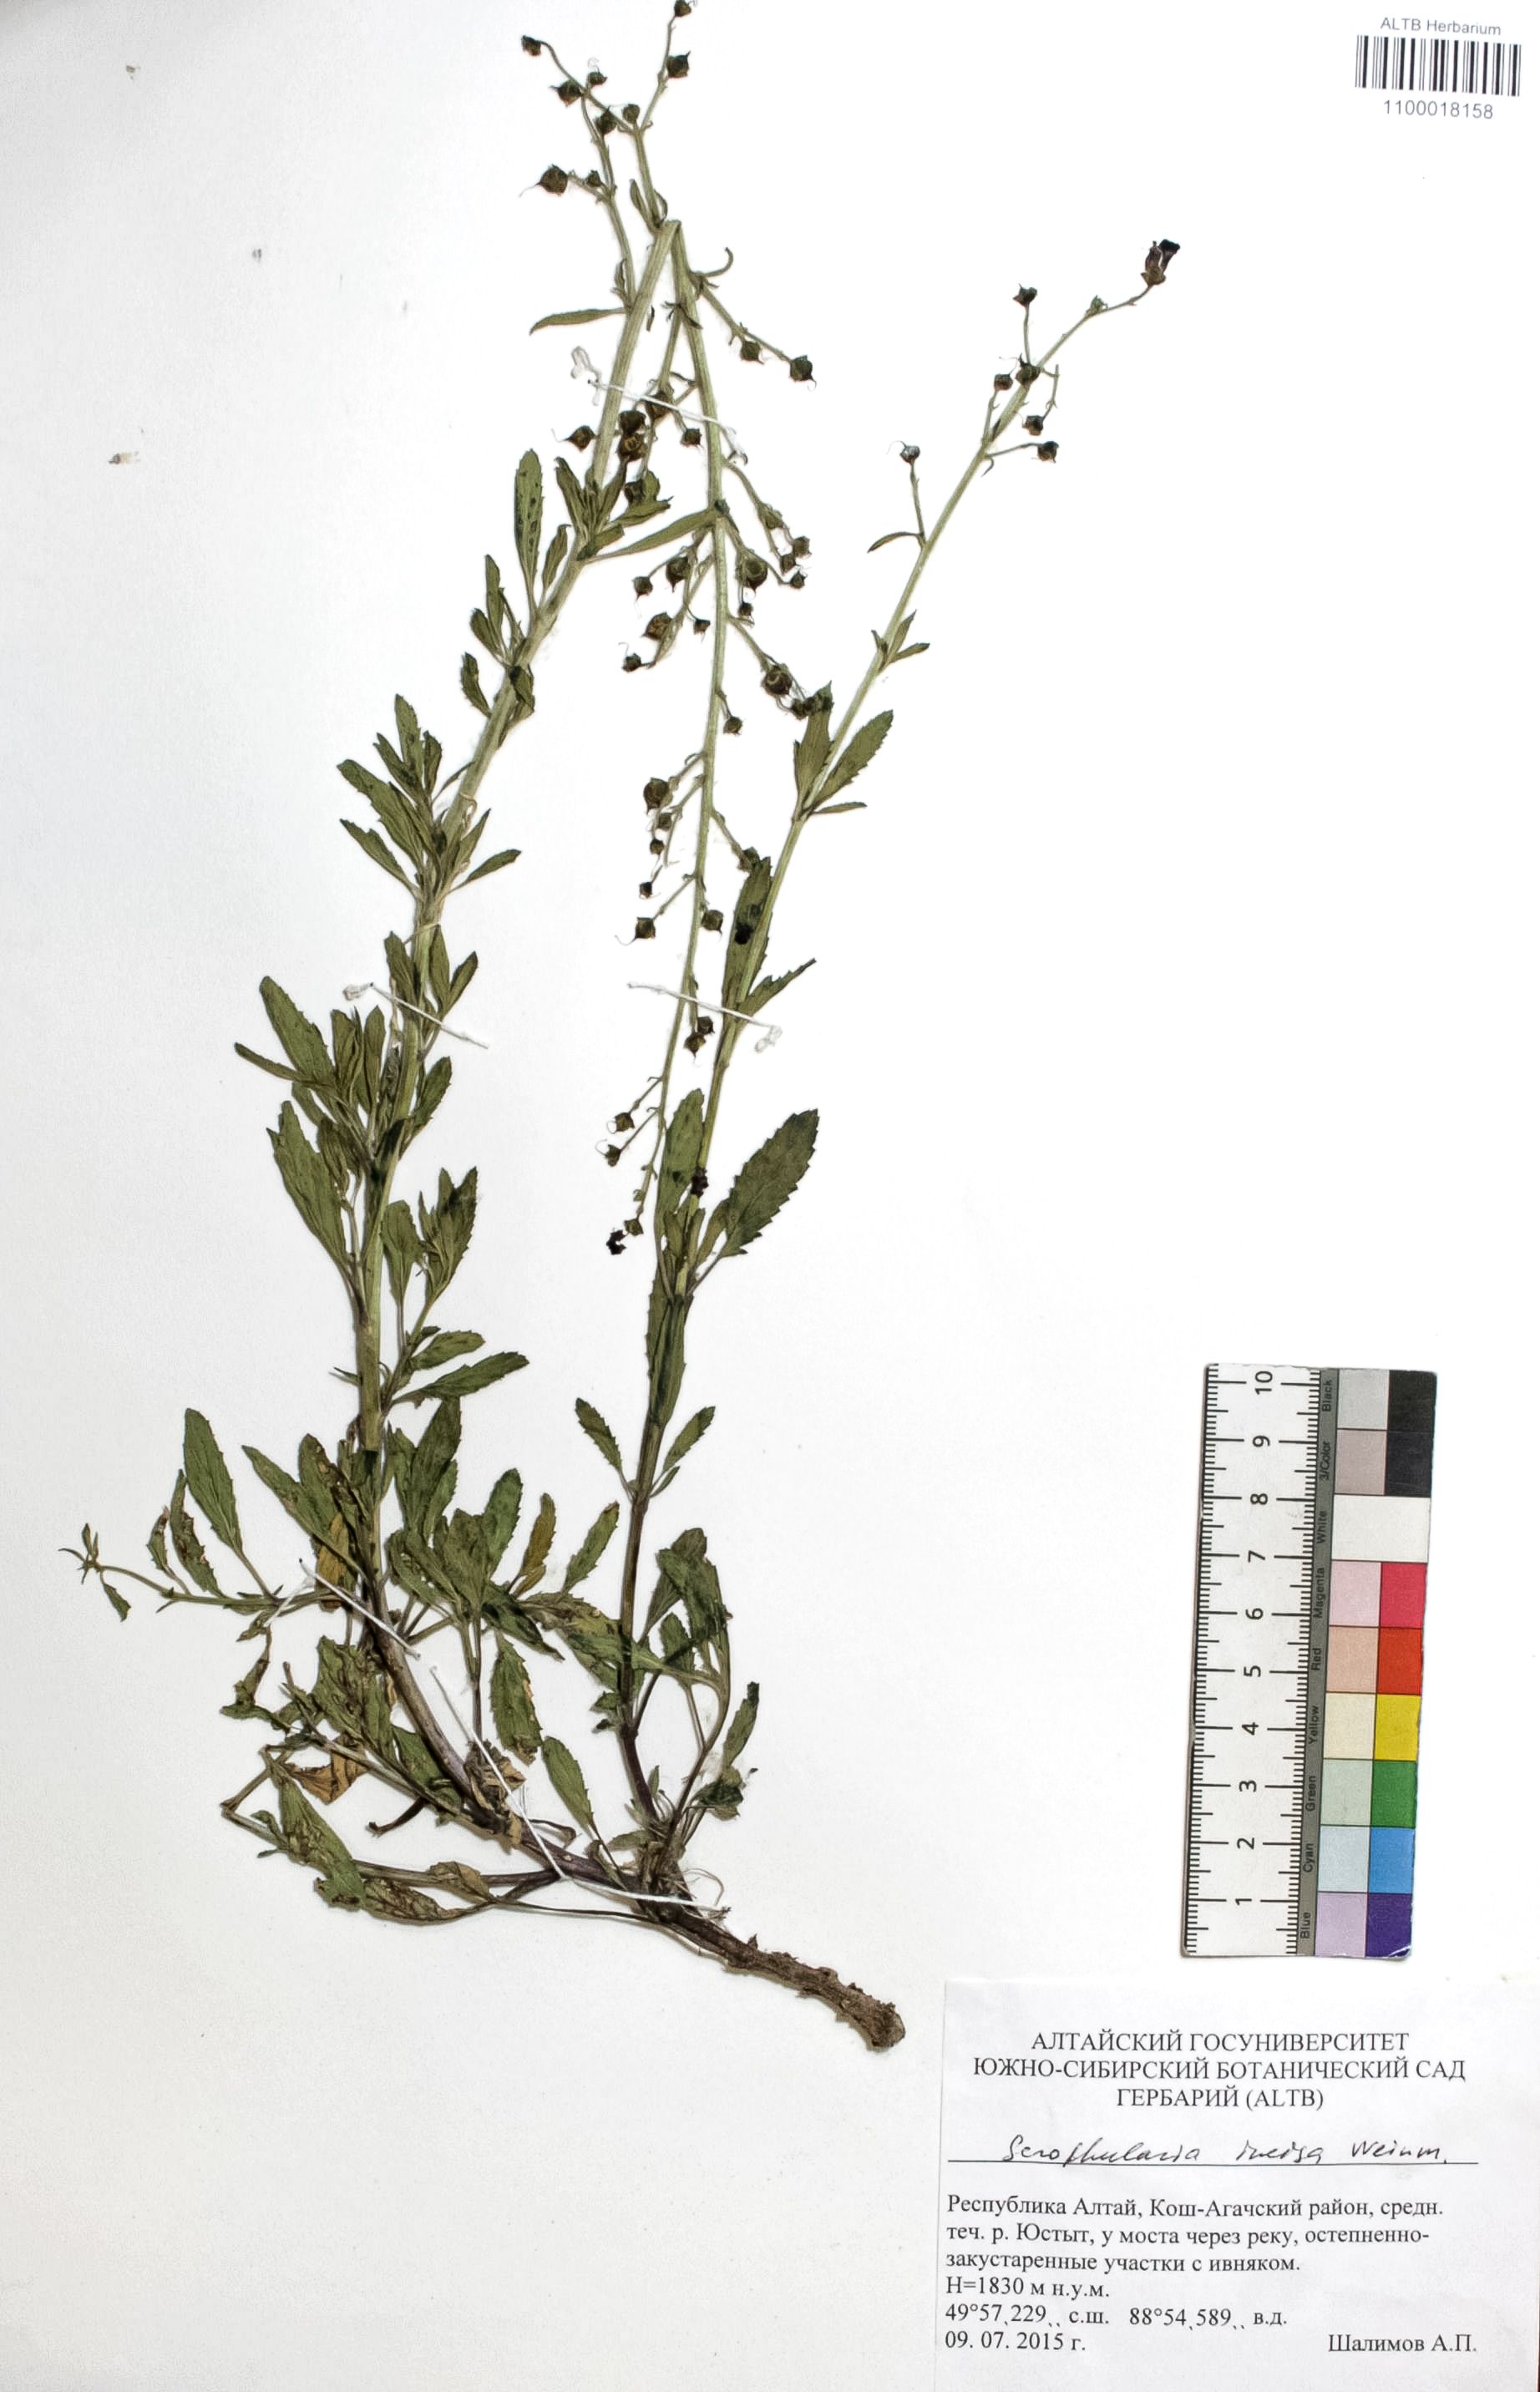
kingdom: Plantae
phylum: Tracheophyta
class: Magnoliopsida
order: Lamiales
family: Scrophulariaceae
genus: Scrophularia
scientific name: Scrophularia incisa
